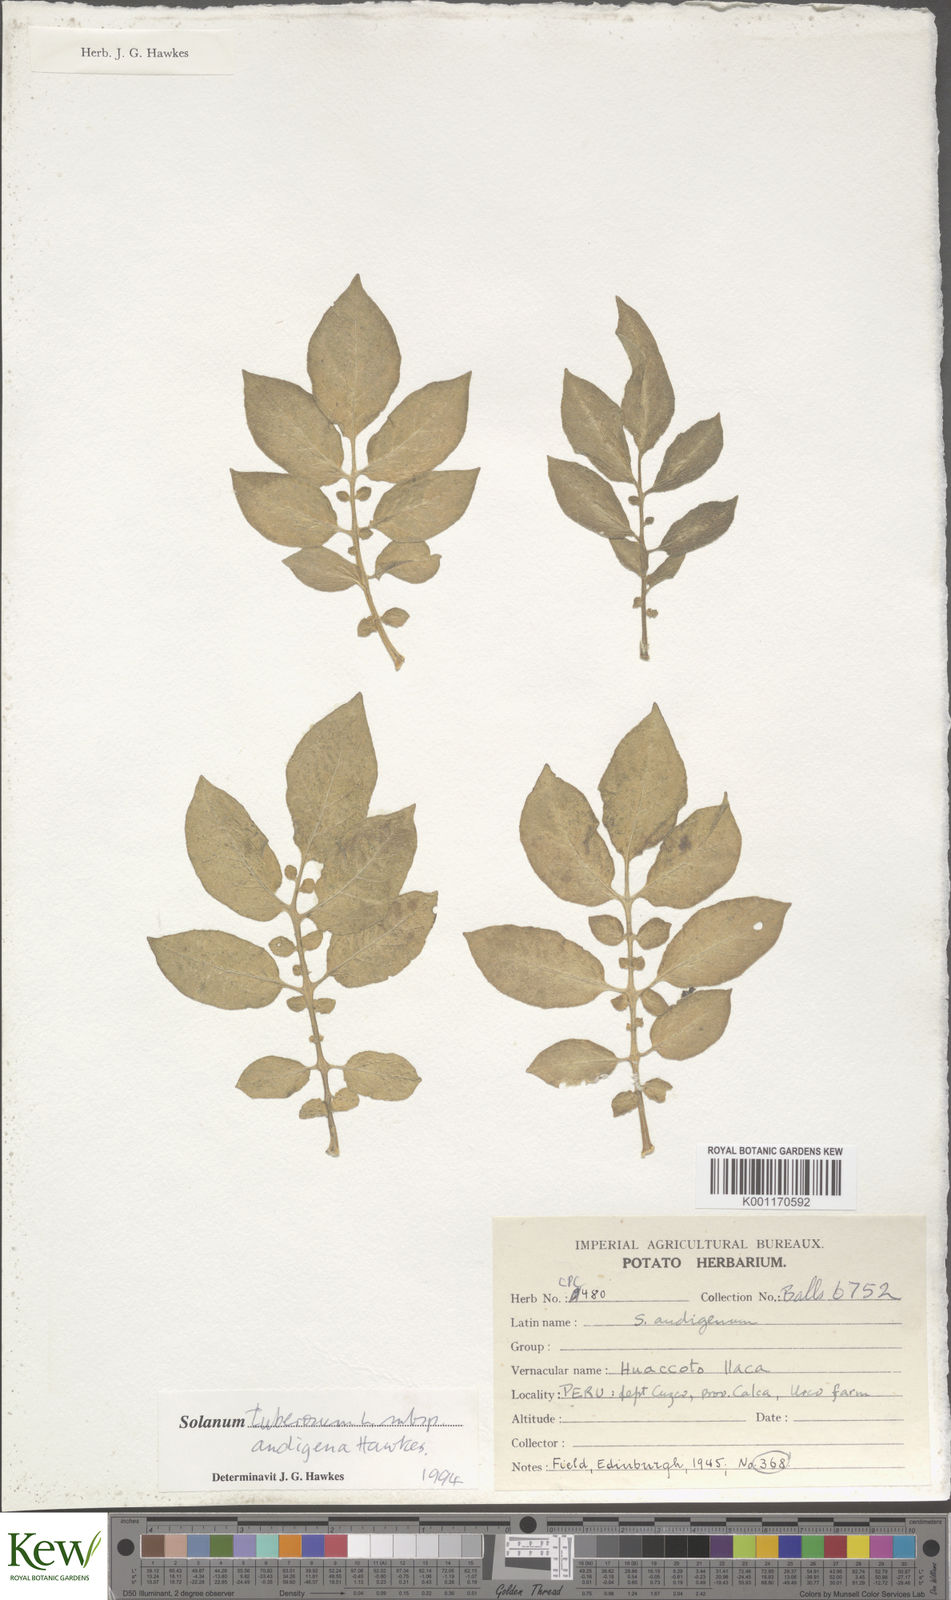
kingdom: Plantae
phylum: Tracheophyta
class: Magnoliopsida
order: Solanales
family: Solanaceae
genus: Solanum
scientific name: Solanum tuberosum
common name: Potato
